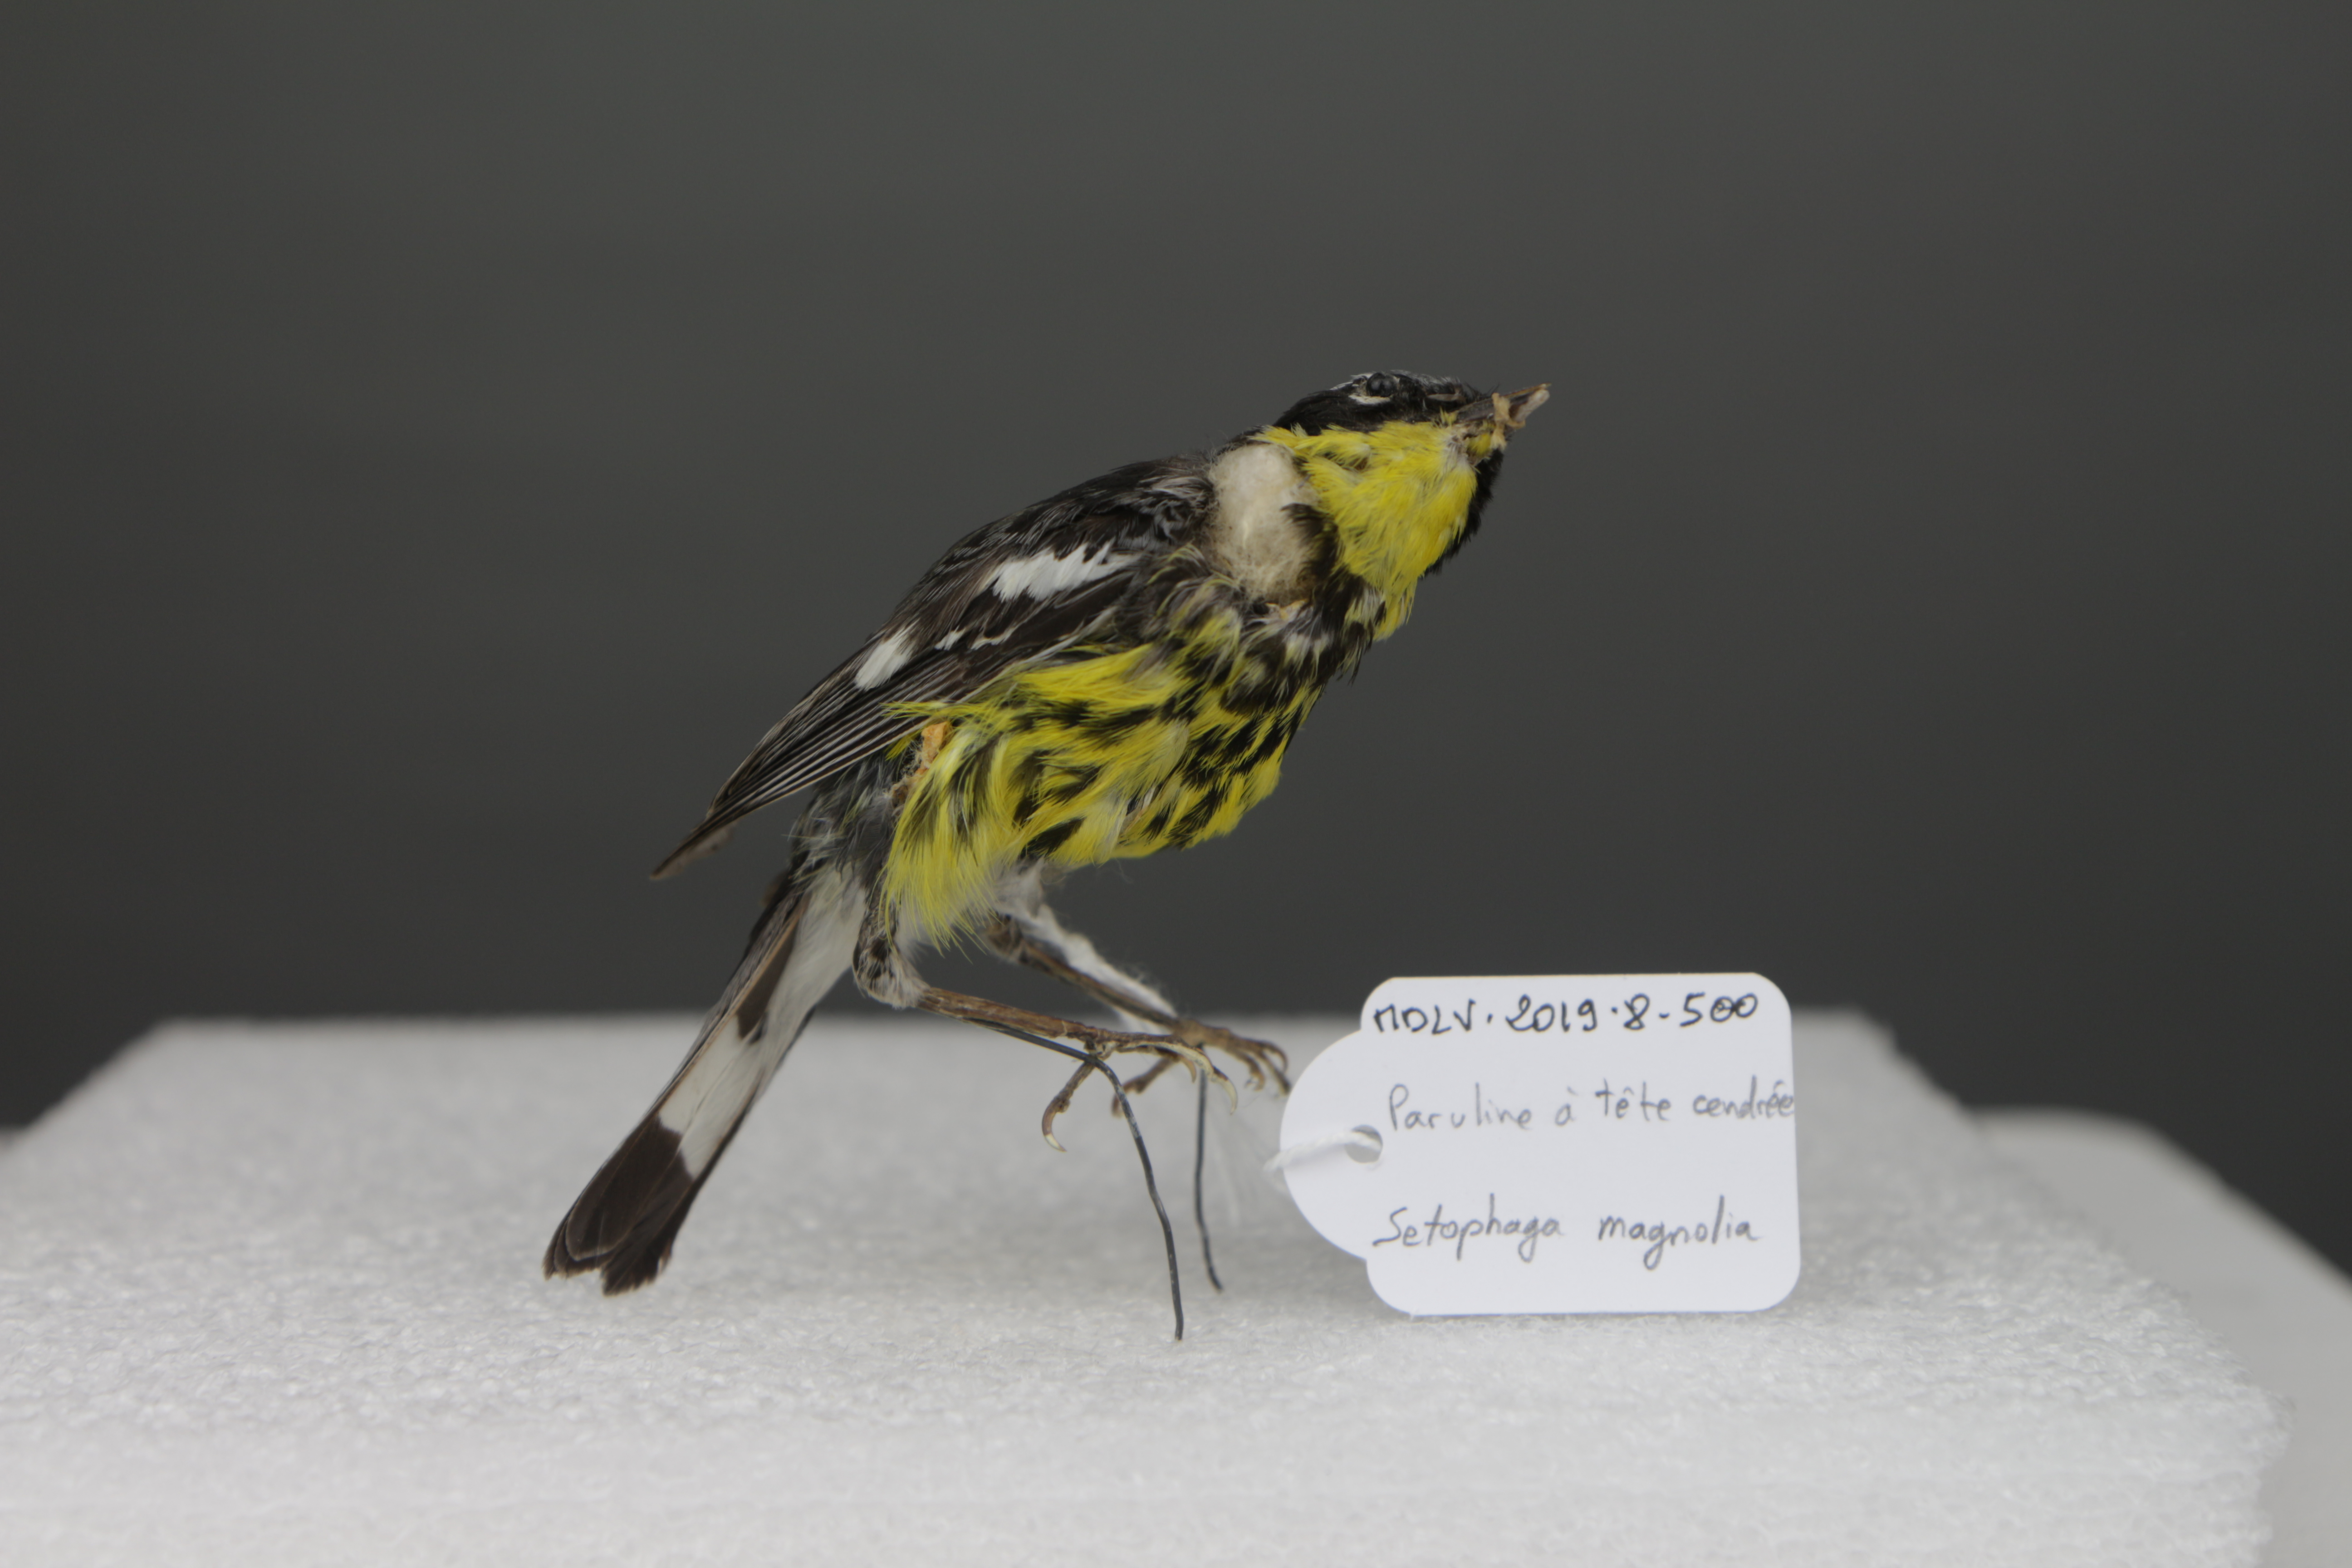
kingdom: Animalia
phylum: Chordata
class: Aves
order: Passeriformes
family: Parulidae
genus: Setophaga
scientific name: Setophaga magnolia
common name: Magnolia warbler
